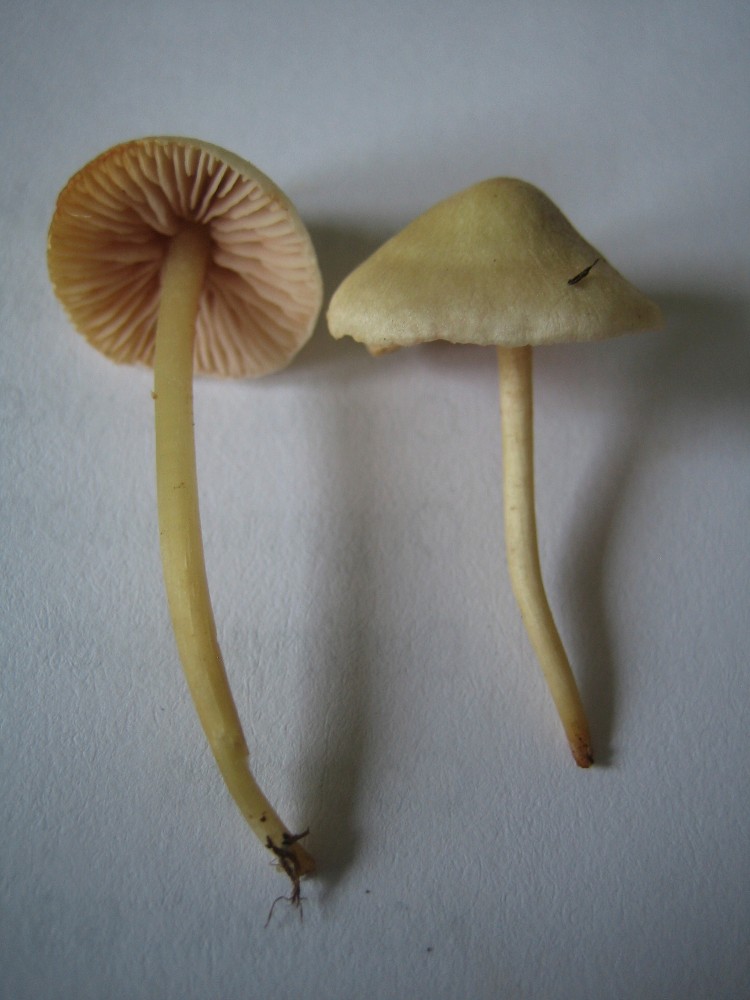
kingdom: Fungi
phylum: Basidiomycota
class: Agaricomycetes
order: Agaricales
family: Entolomataceae
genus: Entoloma
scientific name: Entoloma sericellum
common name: silkehvid rødblad
